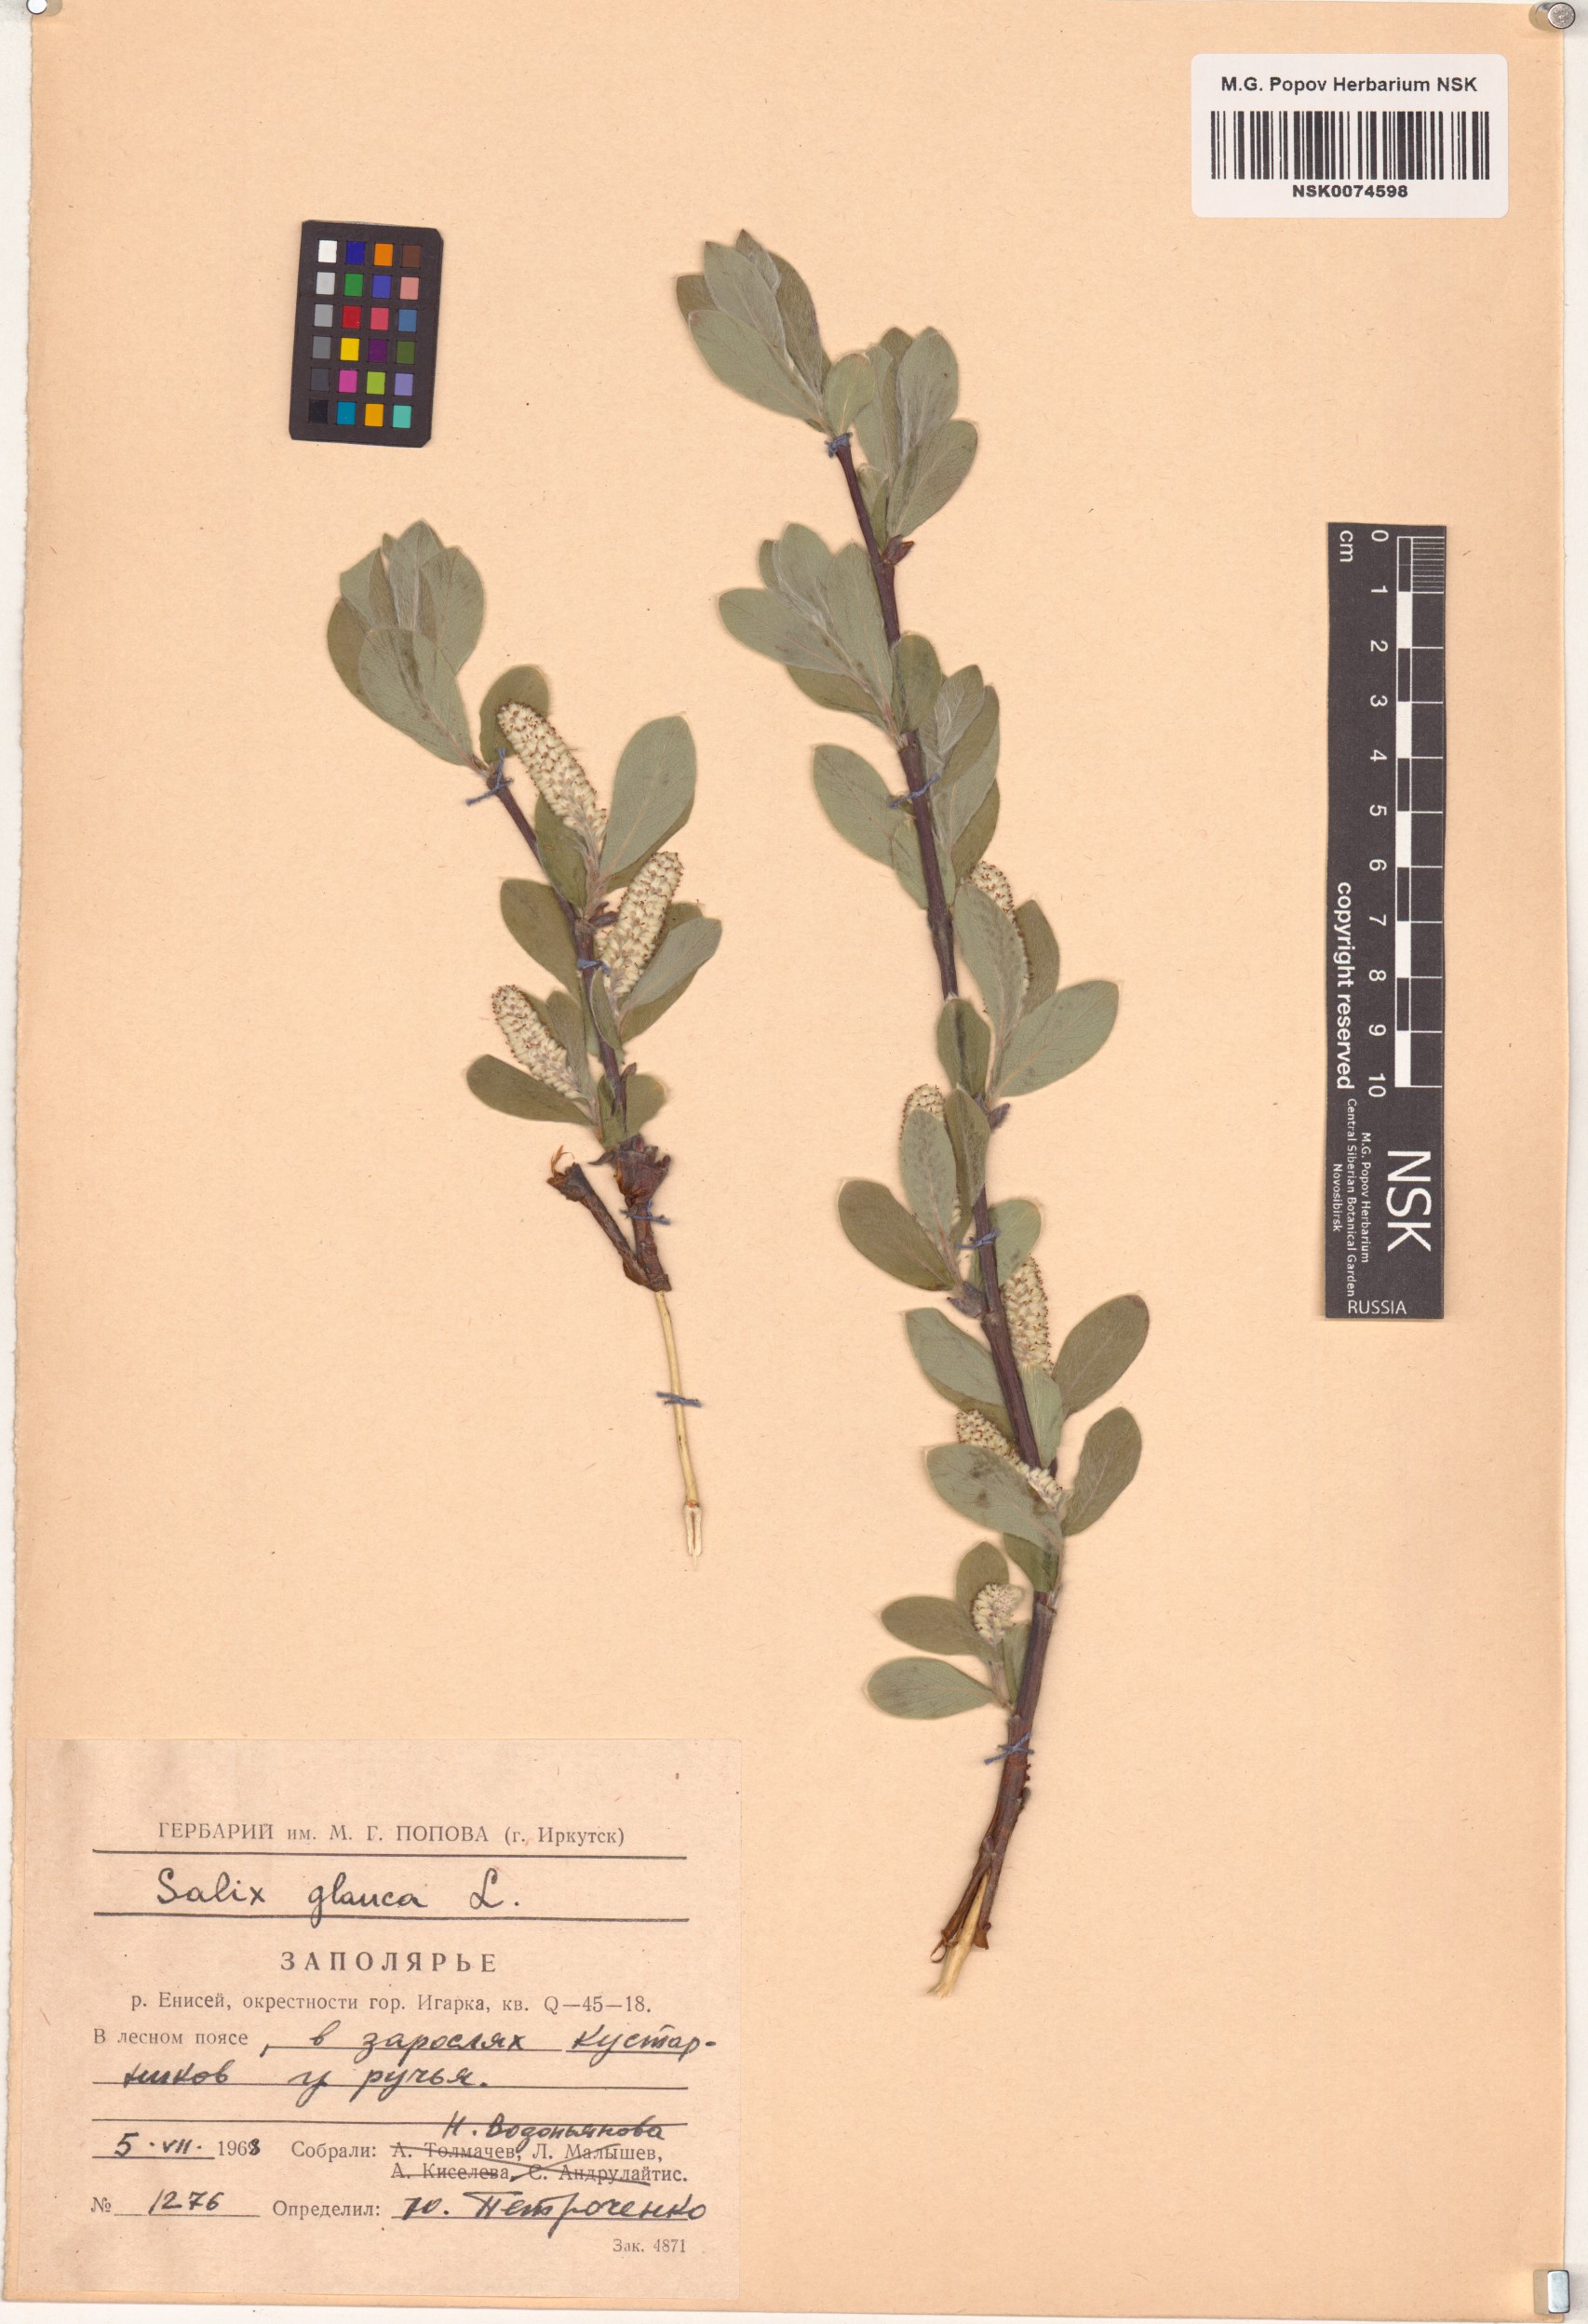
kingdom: Plantae
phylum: Tracheophyta
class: Magnoliopsida
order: Malpighiales
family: Salicaceae
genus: Salix
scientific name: Salix glauca
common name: Glaucous willow
